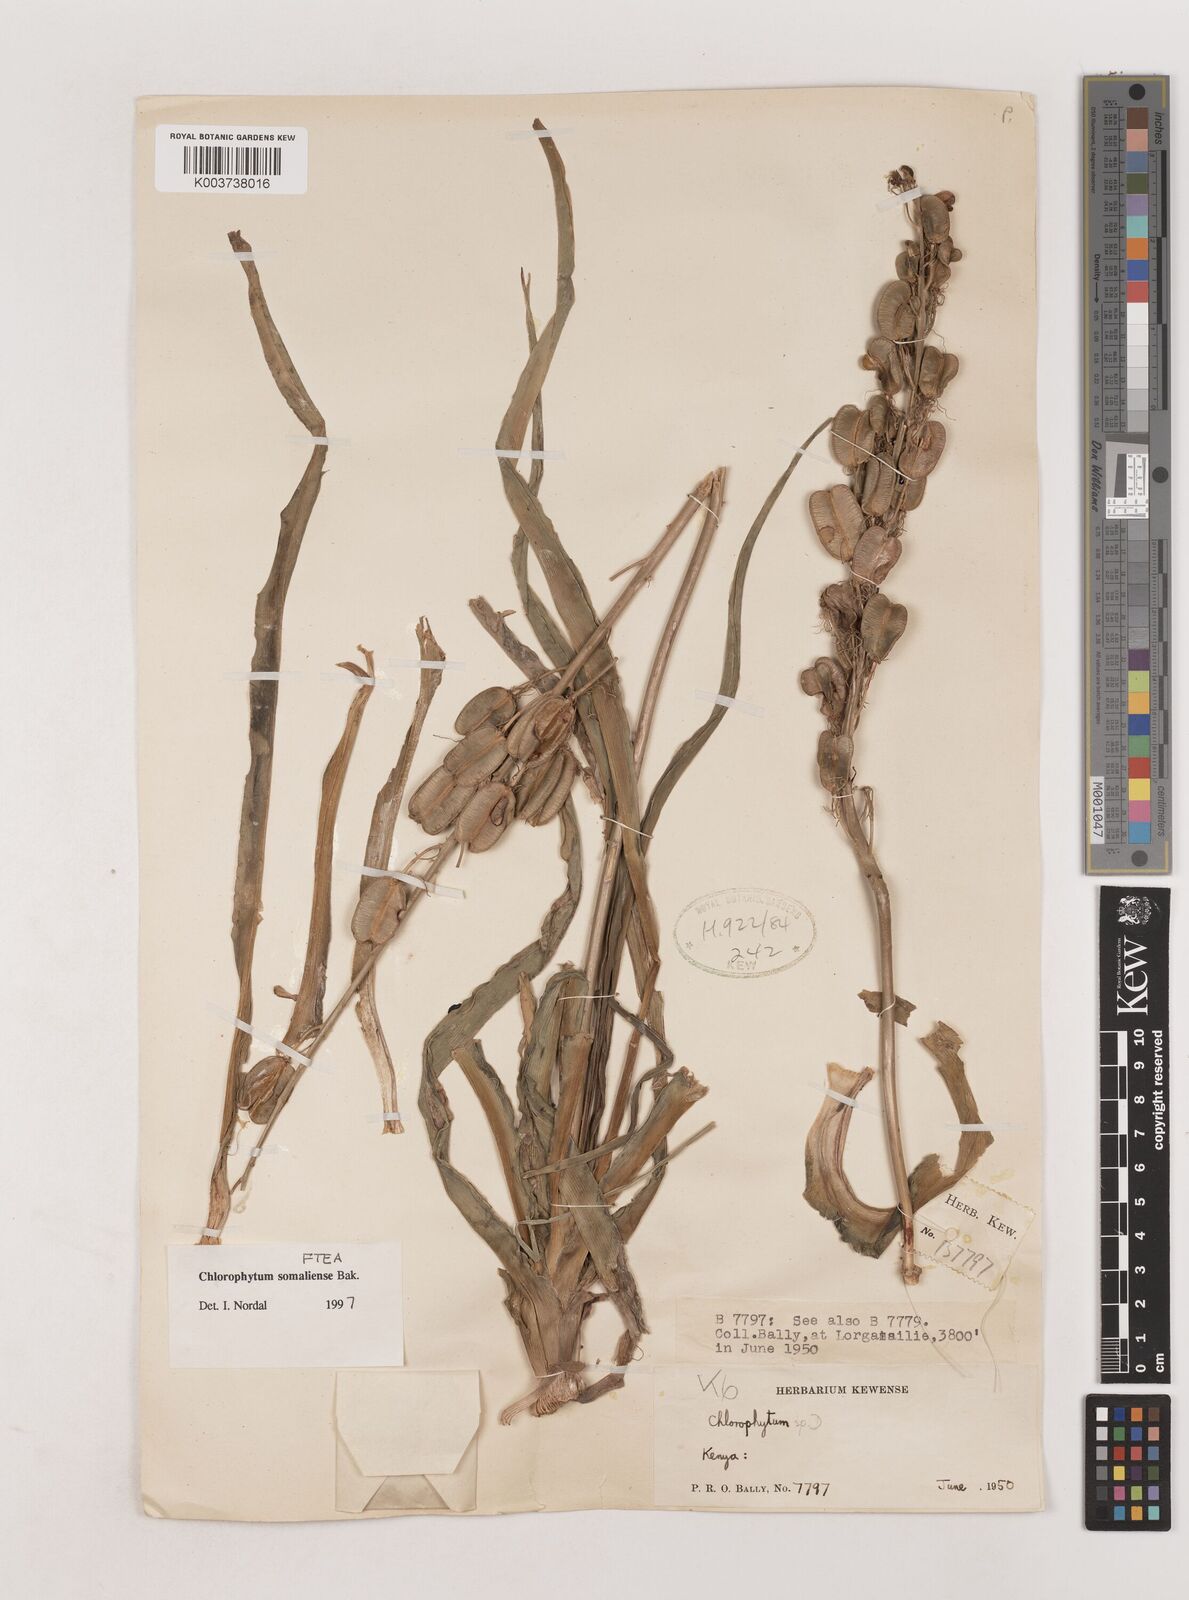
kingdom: Plantae
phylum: Tracheophyta
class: Liliopsida
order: Asparagales
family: Asparagaceae
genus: Chlorophytum
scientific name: Chlorophytum somaliense
